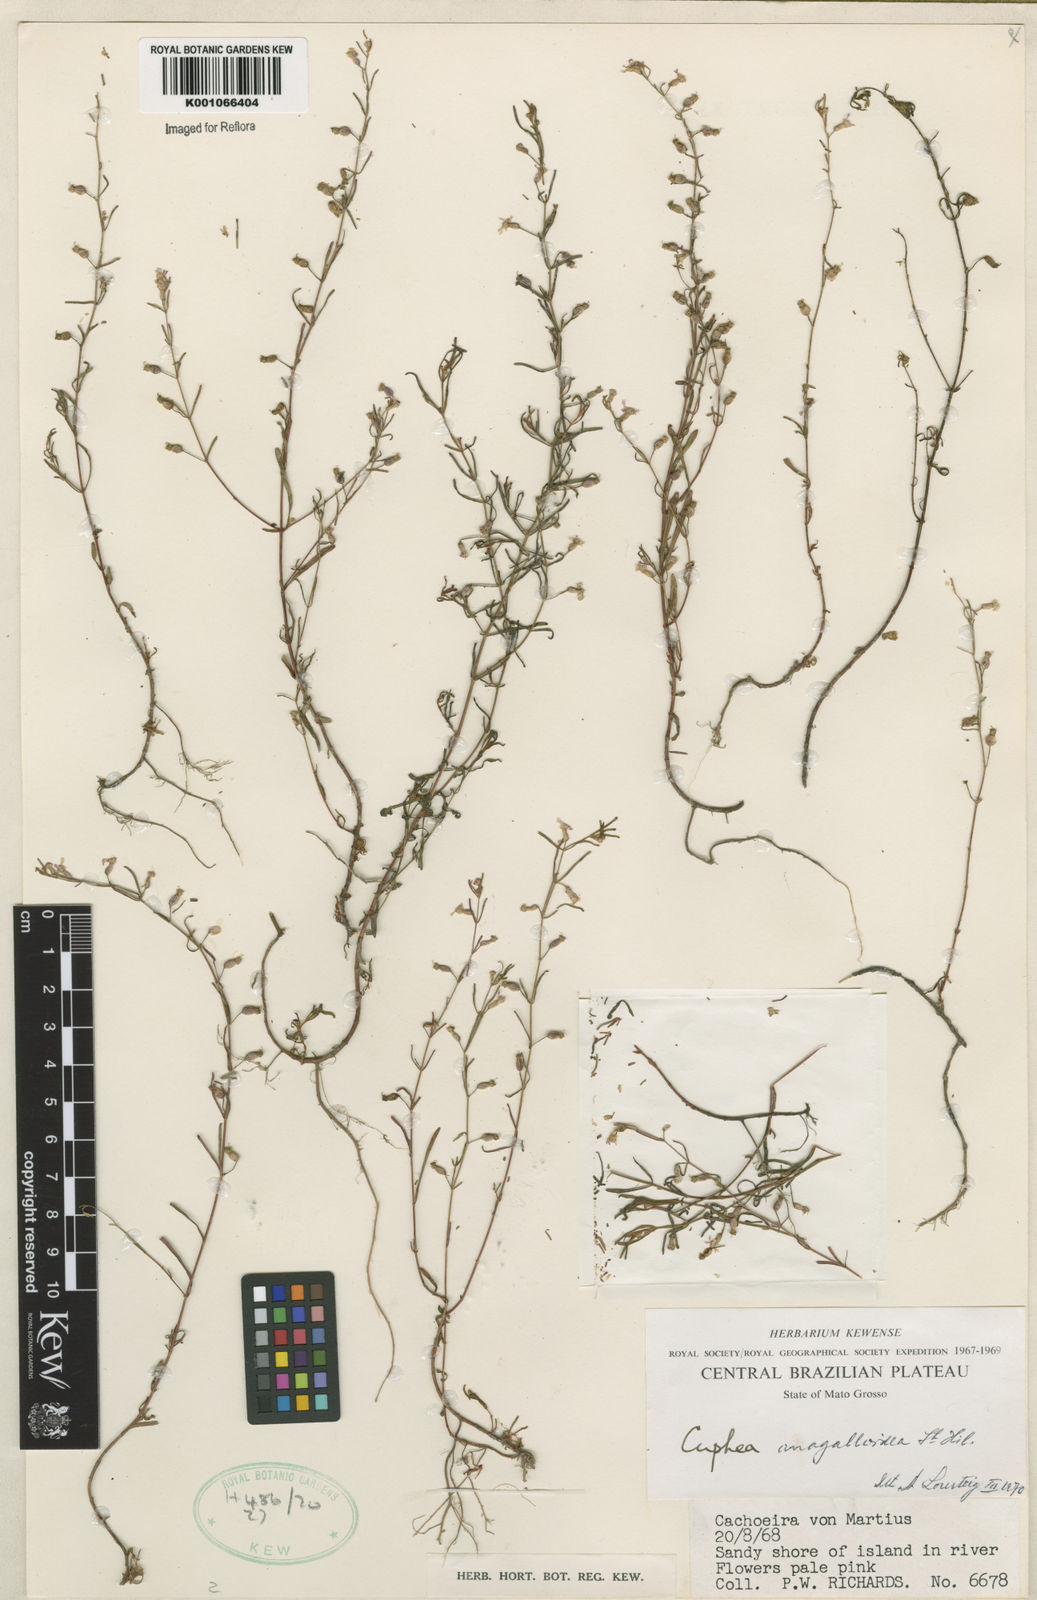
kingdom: Plantae
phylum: Tracheophyta
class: Magnoliopsida
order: Myrtales
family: Lythraceae
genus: Cuphea
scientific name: Cuphea anagalloidea
